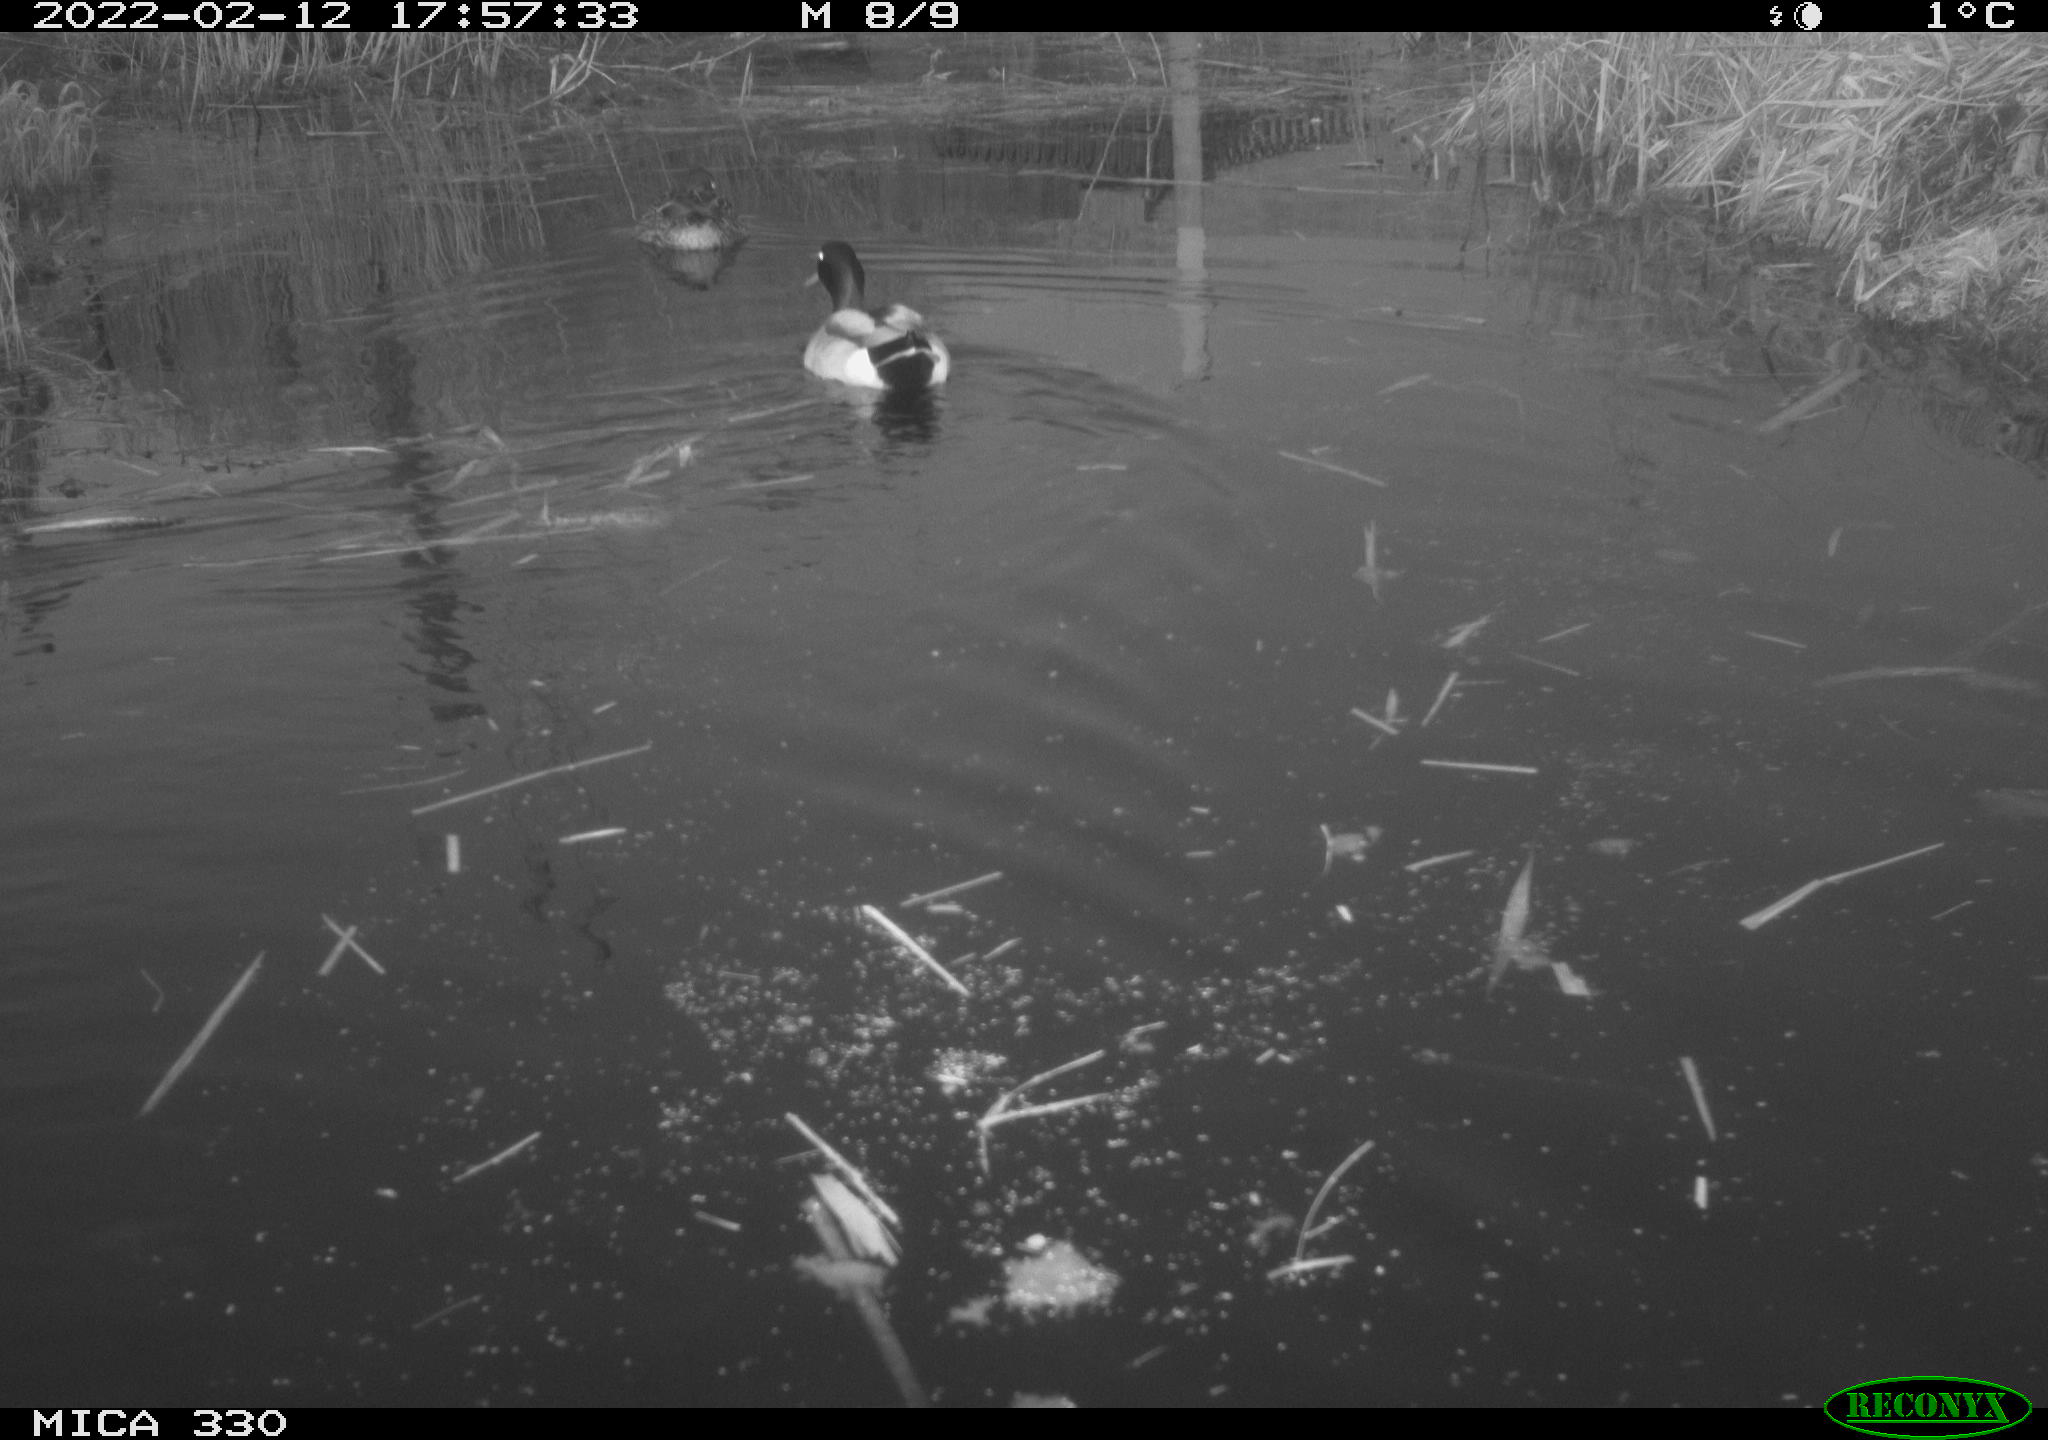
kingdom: Animalia
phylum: Chordata
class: Aves
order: Anseriformes
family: Anatidae
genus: Anas
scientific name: Anas platyrhynchos
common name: Mallard
